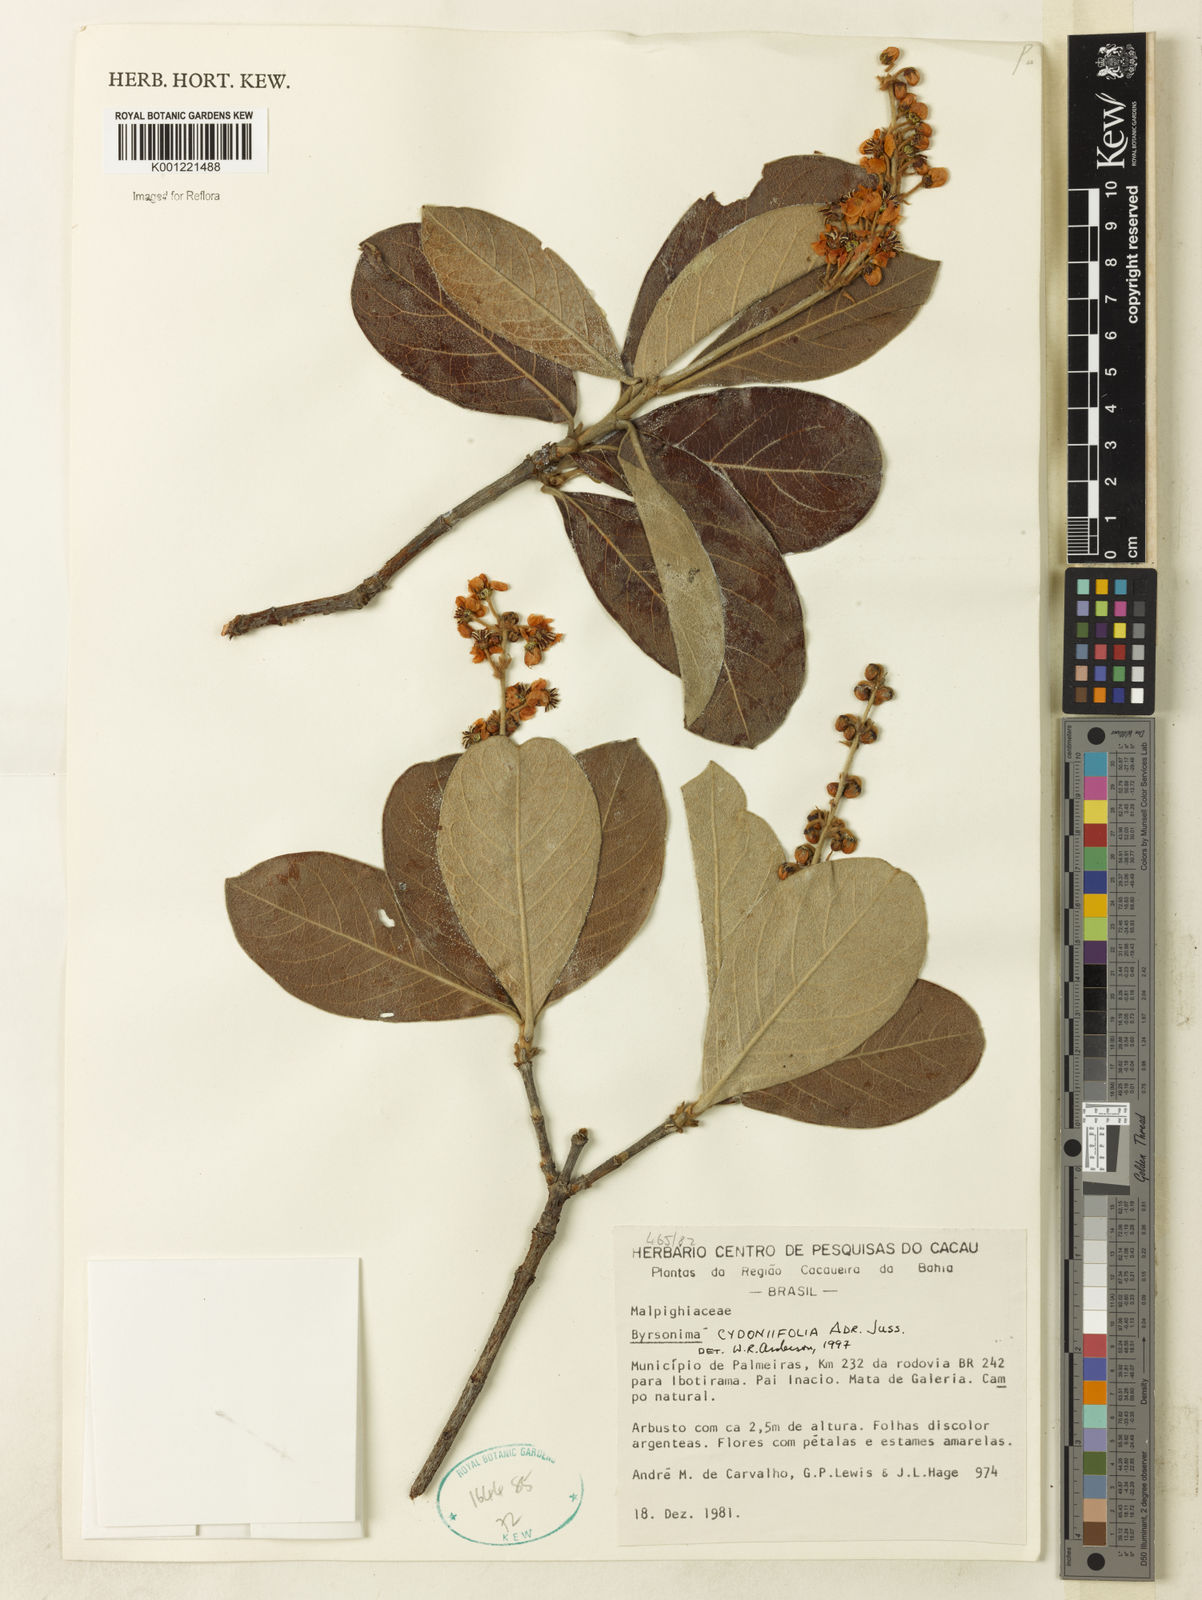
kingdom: Plantae
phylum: Tracheophyta
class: Magnoliopsida
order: Malpighiales
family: Malpighiaceae
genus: Byrsonima
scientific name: Byrsonima cydoniifolia
